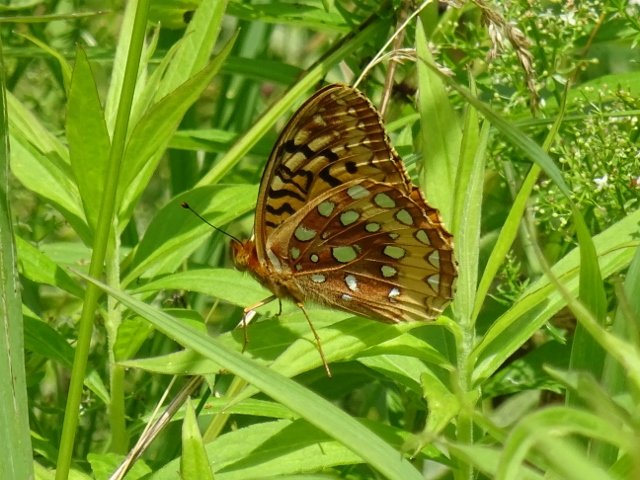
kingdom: Animalia
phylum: Arthropoda
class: Insecta
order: Lepidoptera
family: Nymphalidae
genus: Speyeria
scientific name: Speyeria cybele
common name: Great Spangled Fritillary
